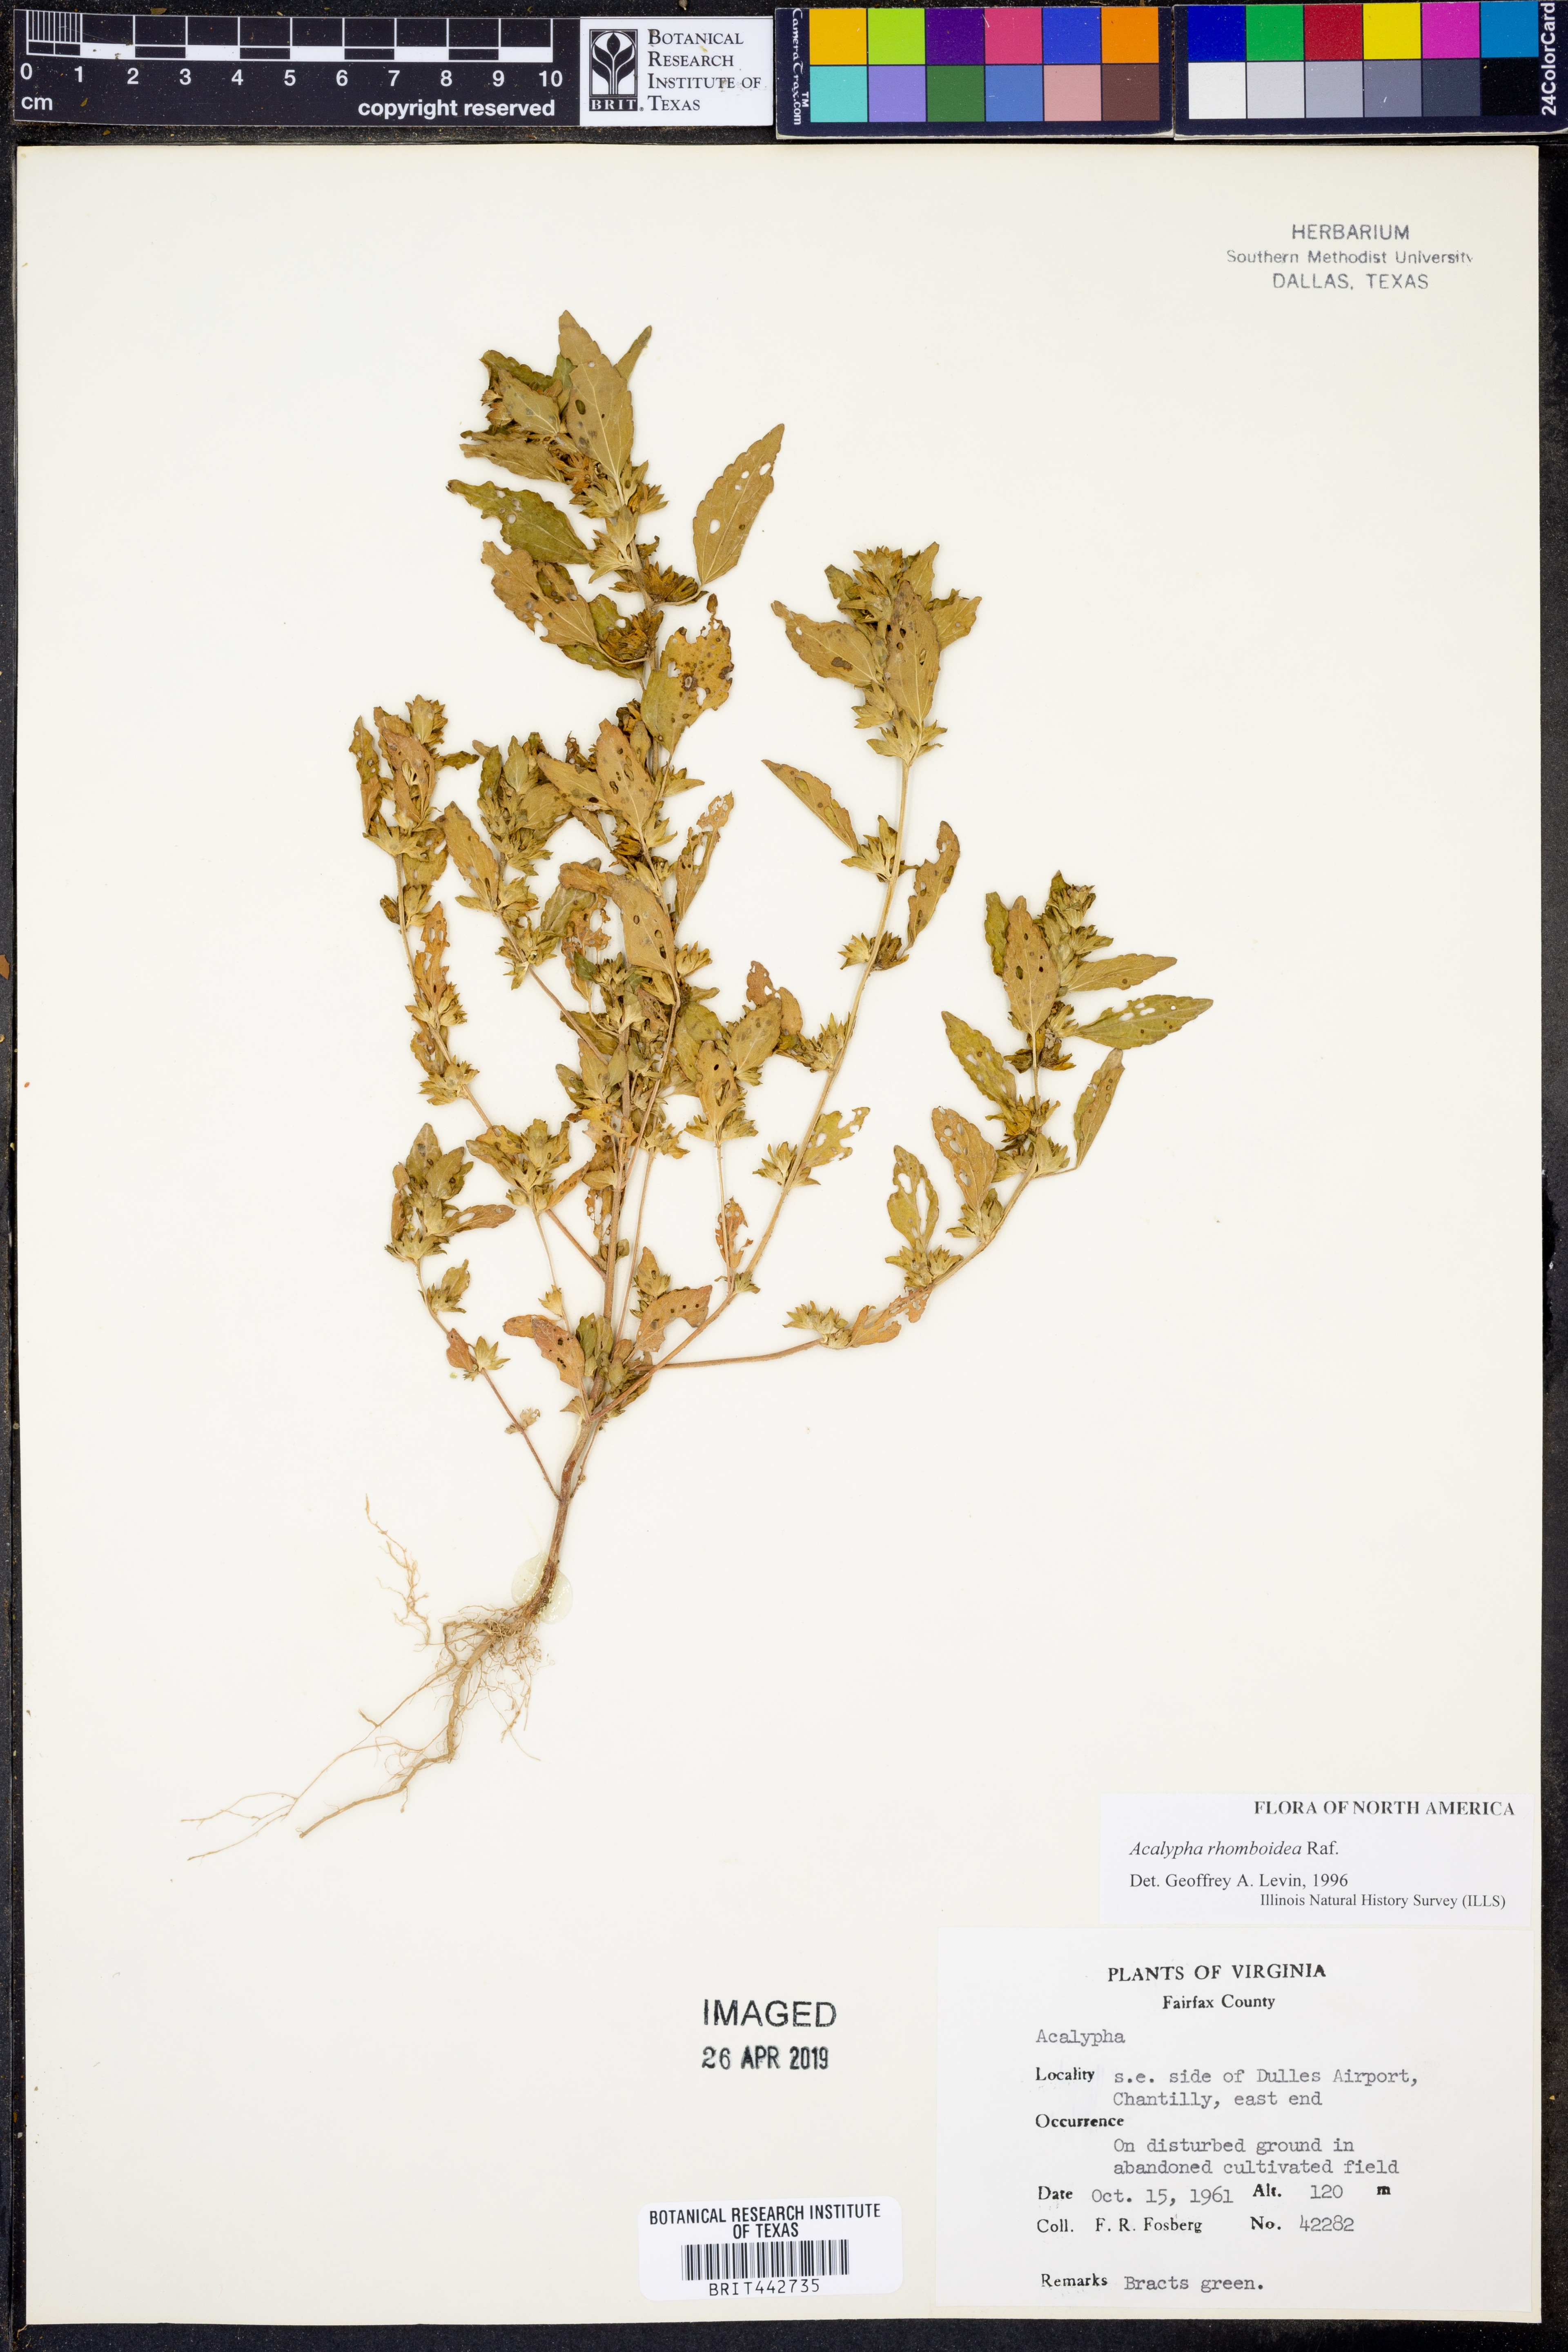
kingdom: Plantae
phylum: Tracheophyta
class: Magnoliopsida
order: Malpighiales
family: Euphorbiaceae
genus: Acalypha
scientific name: Acalypha rhomboidea
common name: Rhombic copperleaf
